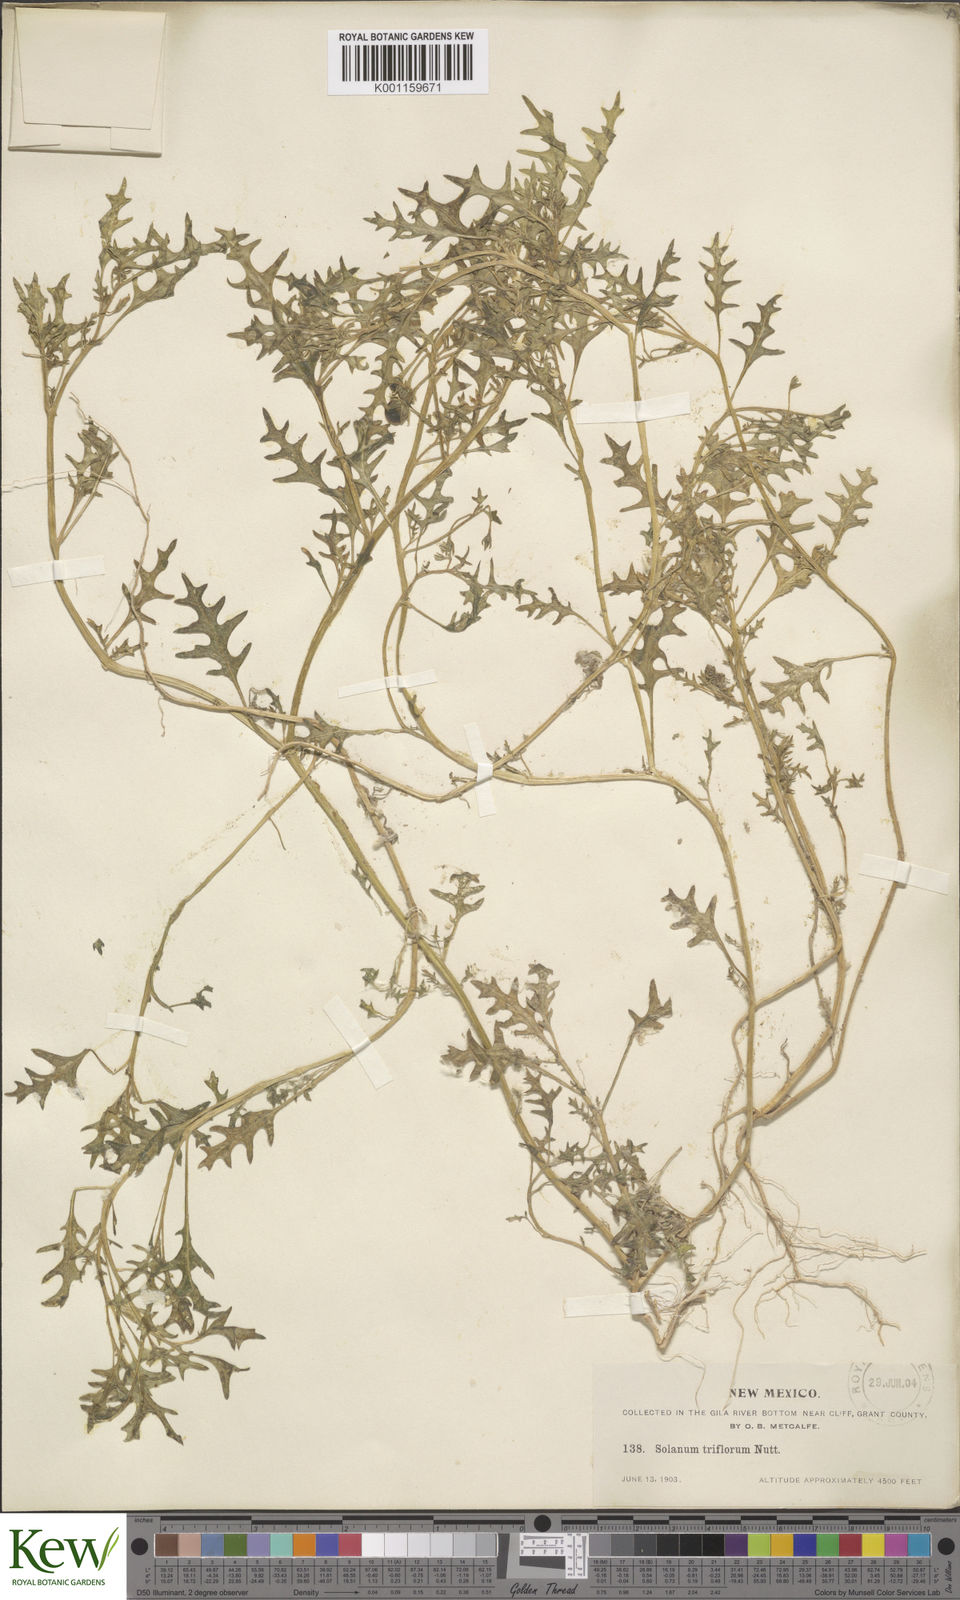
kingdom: Plantae
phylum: Tracheophyta
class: Magnoliopsida
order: Solanales
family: Solanaceae
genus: Solanum
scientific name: Solanum triflorum
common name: Small nightshade
